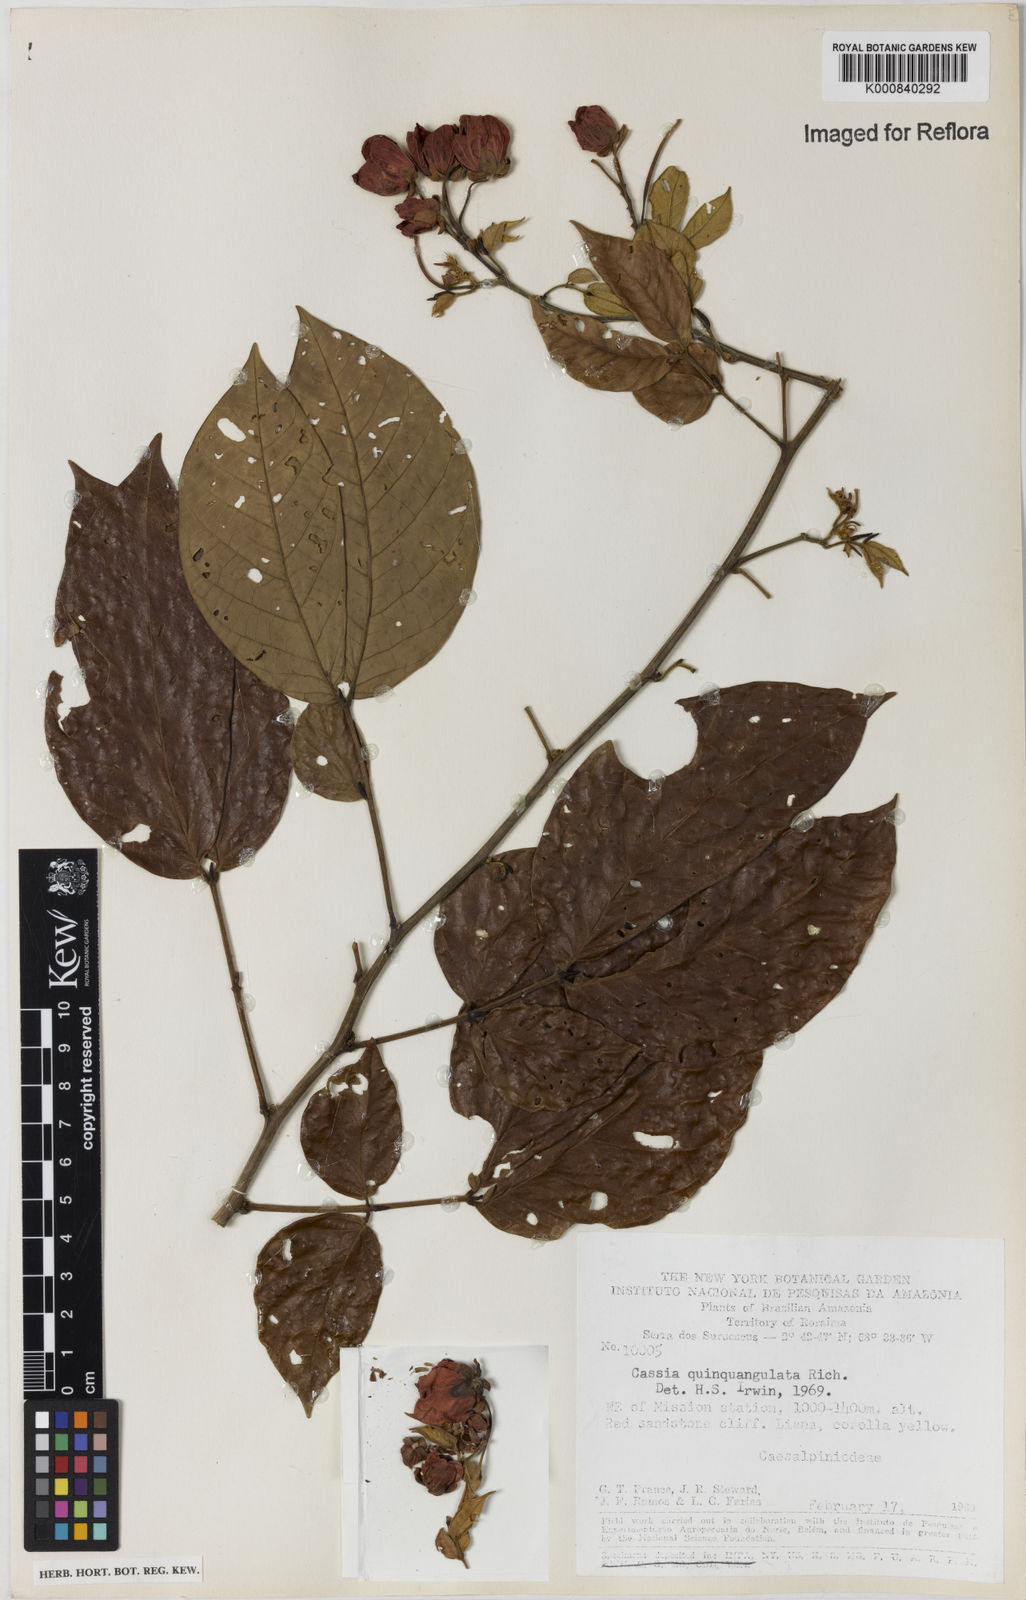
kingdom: Plantae
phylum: Tracheophyta
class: Magnoliopsida
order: Fabales
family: Fabaceae
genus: Senna
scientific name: Senna
